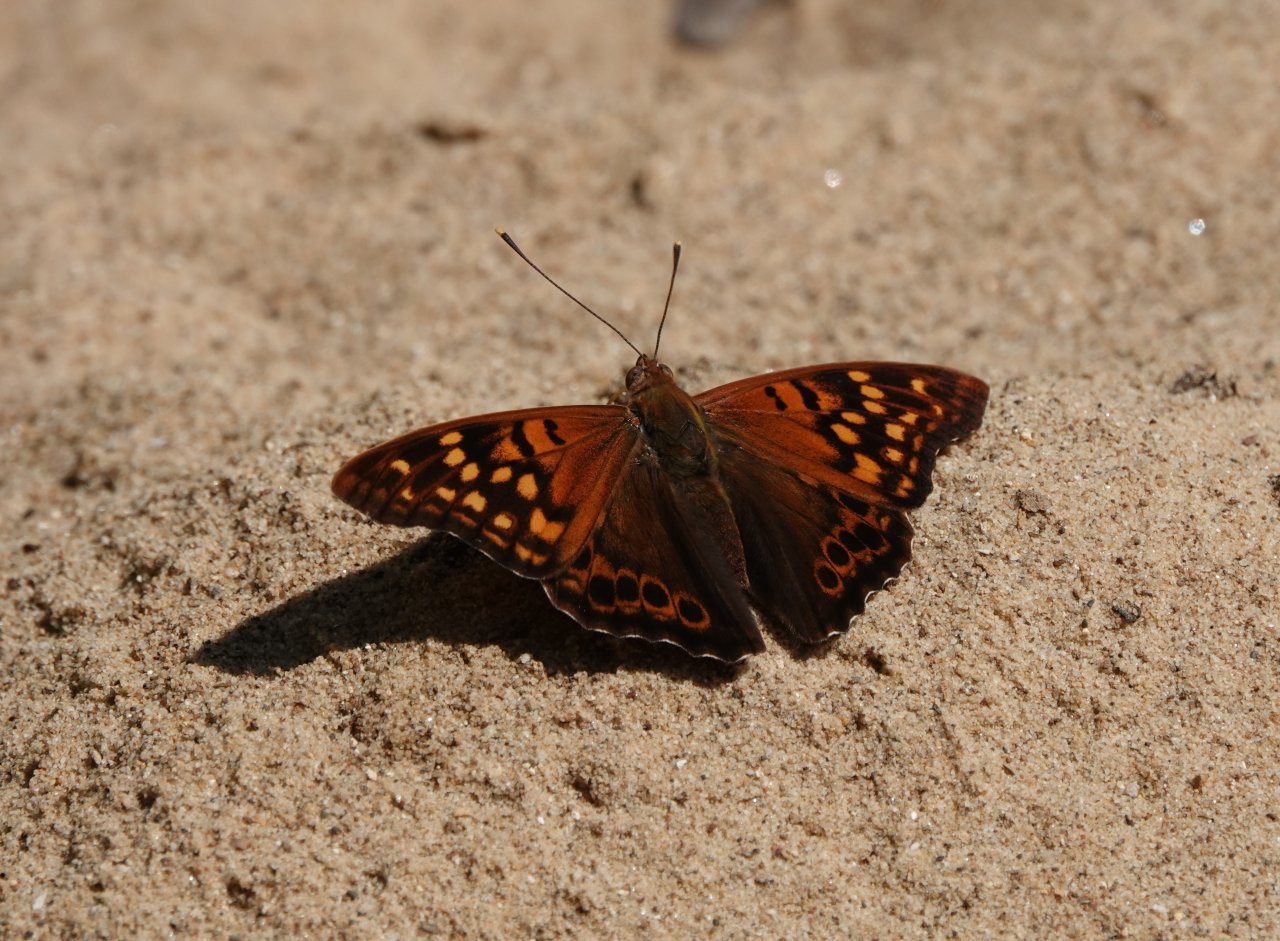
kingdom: Animalia
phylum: Arthropoda
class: Insecta
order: Lepidoptera
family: Nymphalidae
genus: Asterocampa
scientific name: Asterocampa clyton
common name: Tawny Emperor
